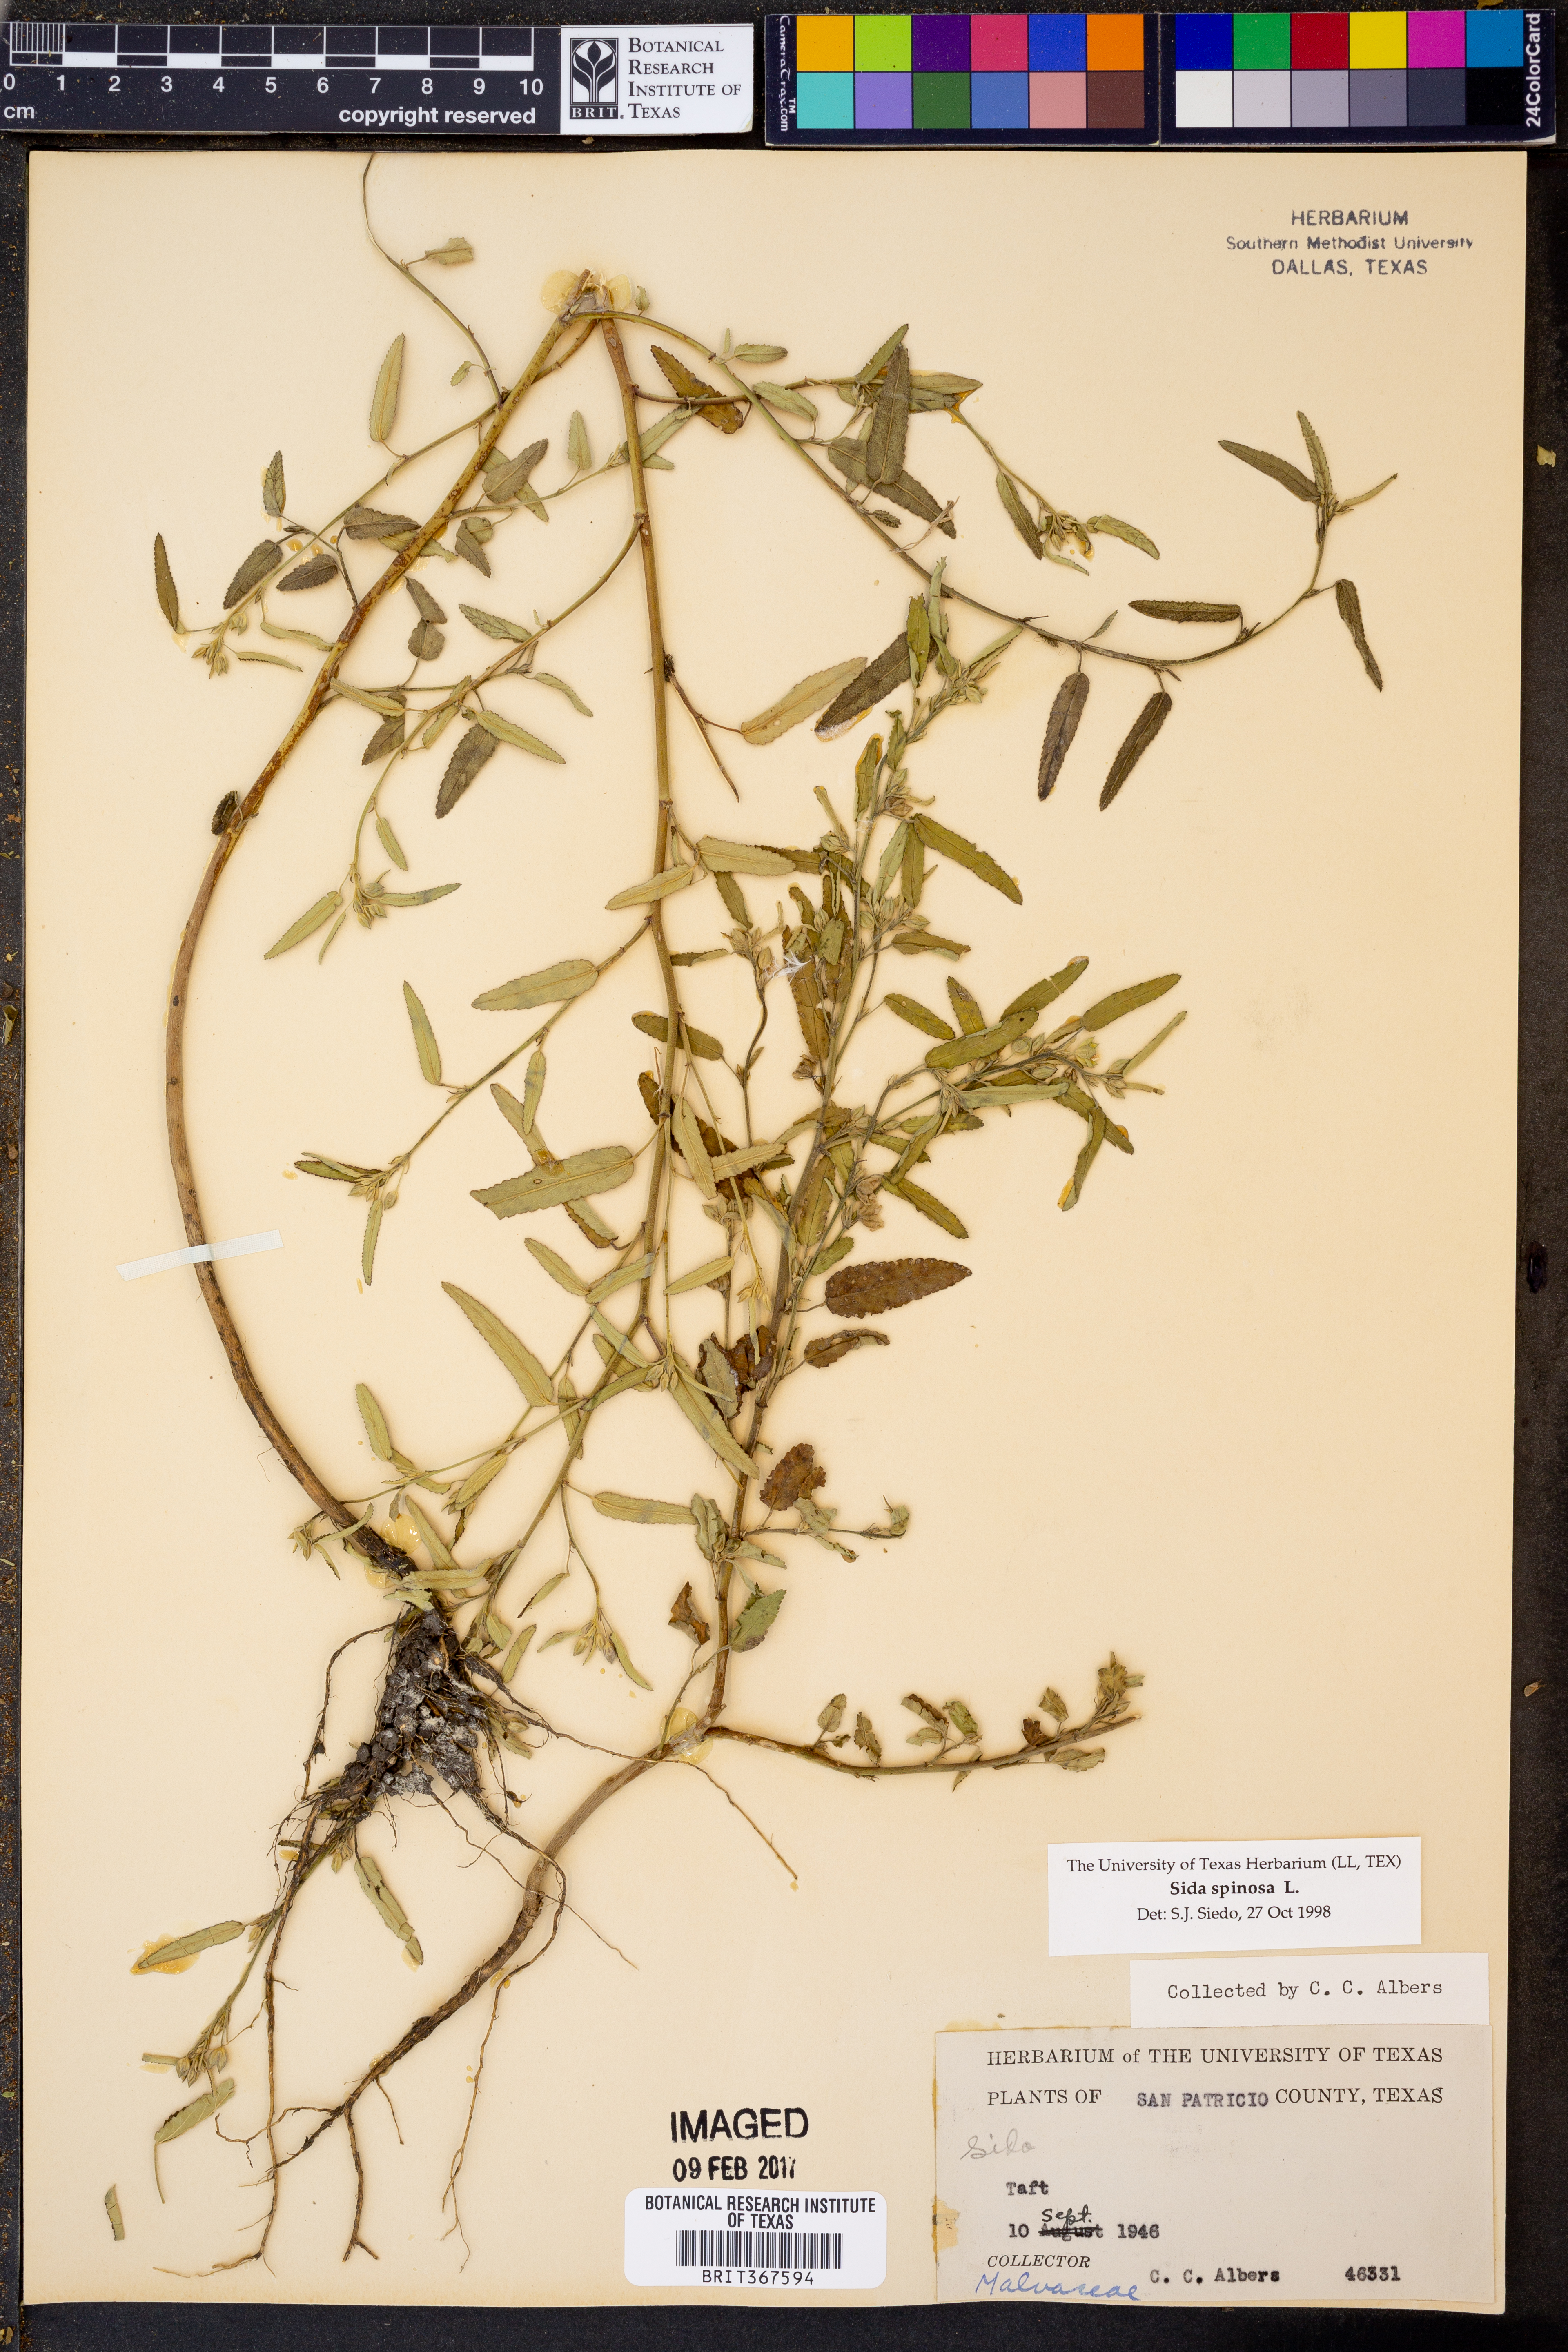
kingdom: Plantae
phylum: Tracheophyta
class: Magnoliopsida
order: Malvales
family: Malvaceae
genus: Sida
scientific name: Sida spinosa
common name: Prickly fanpetals
